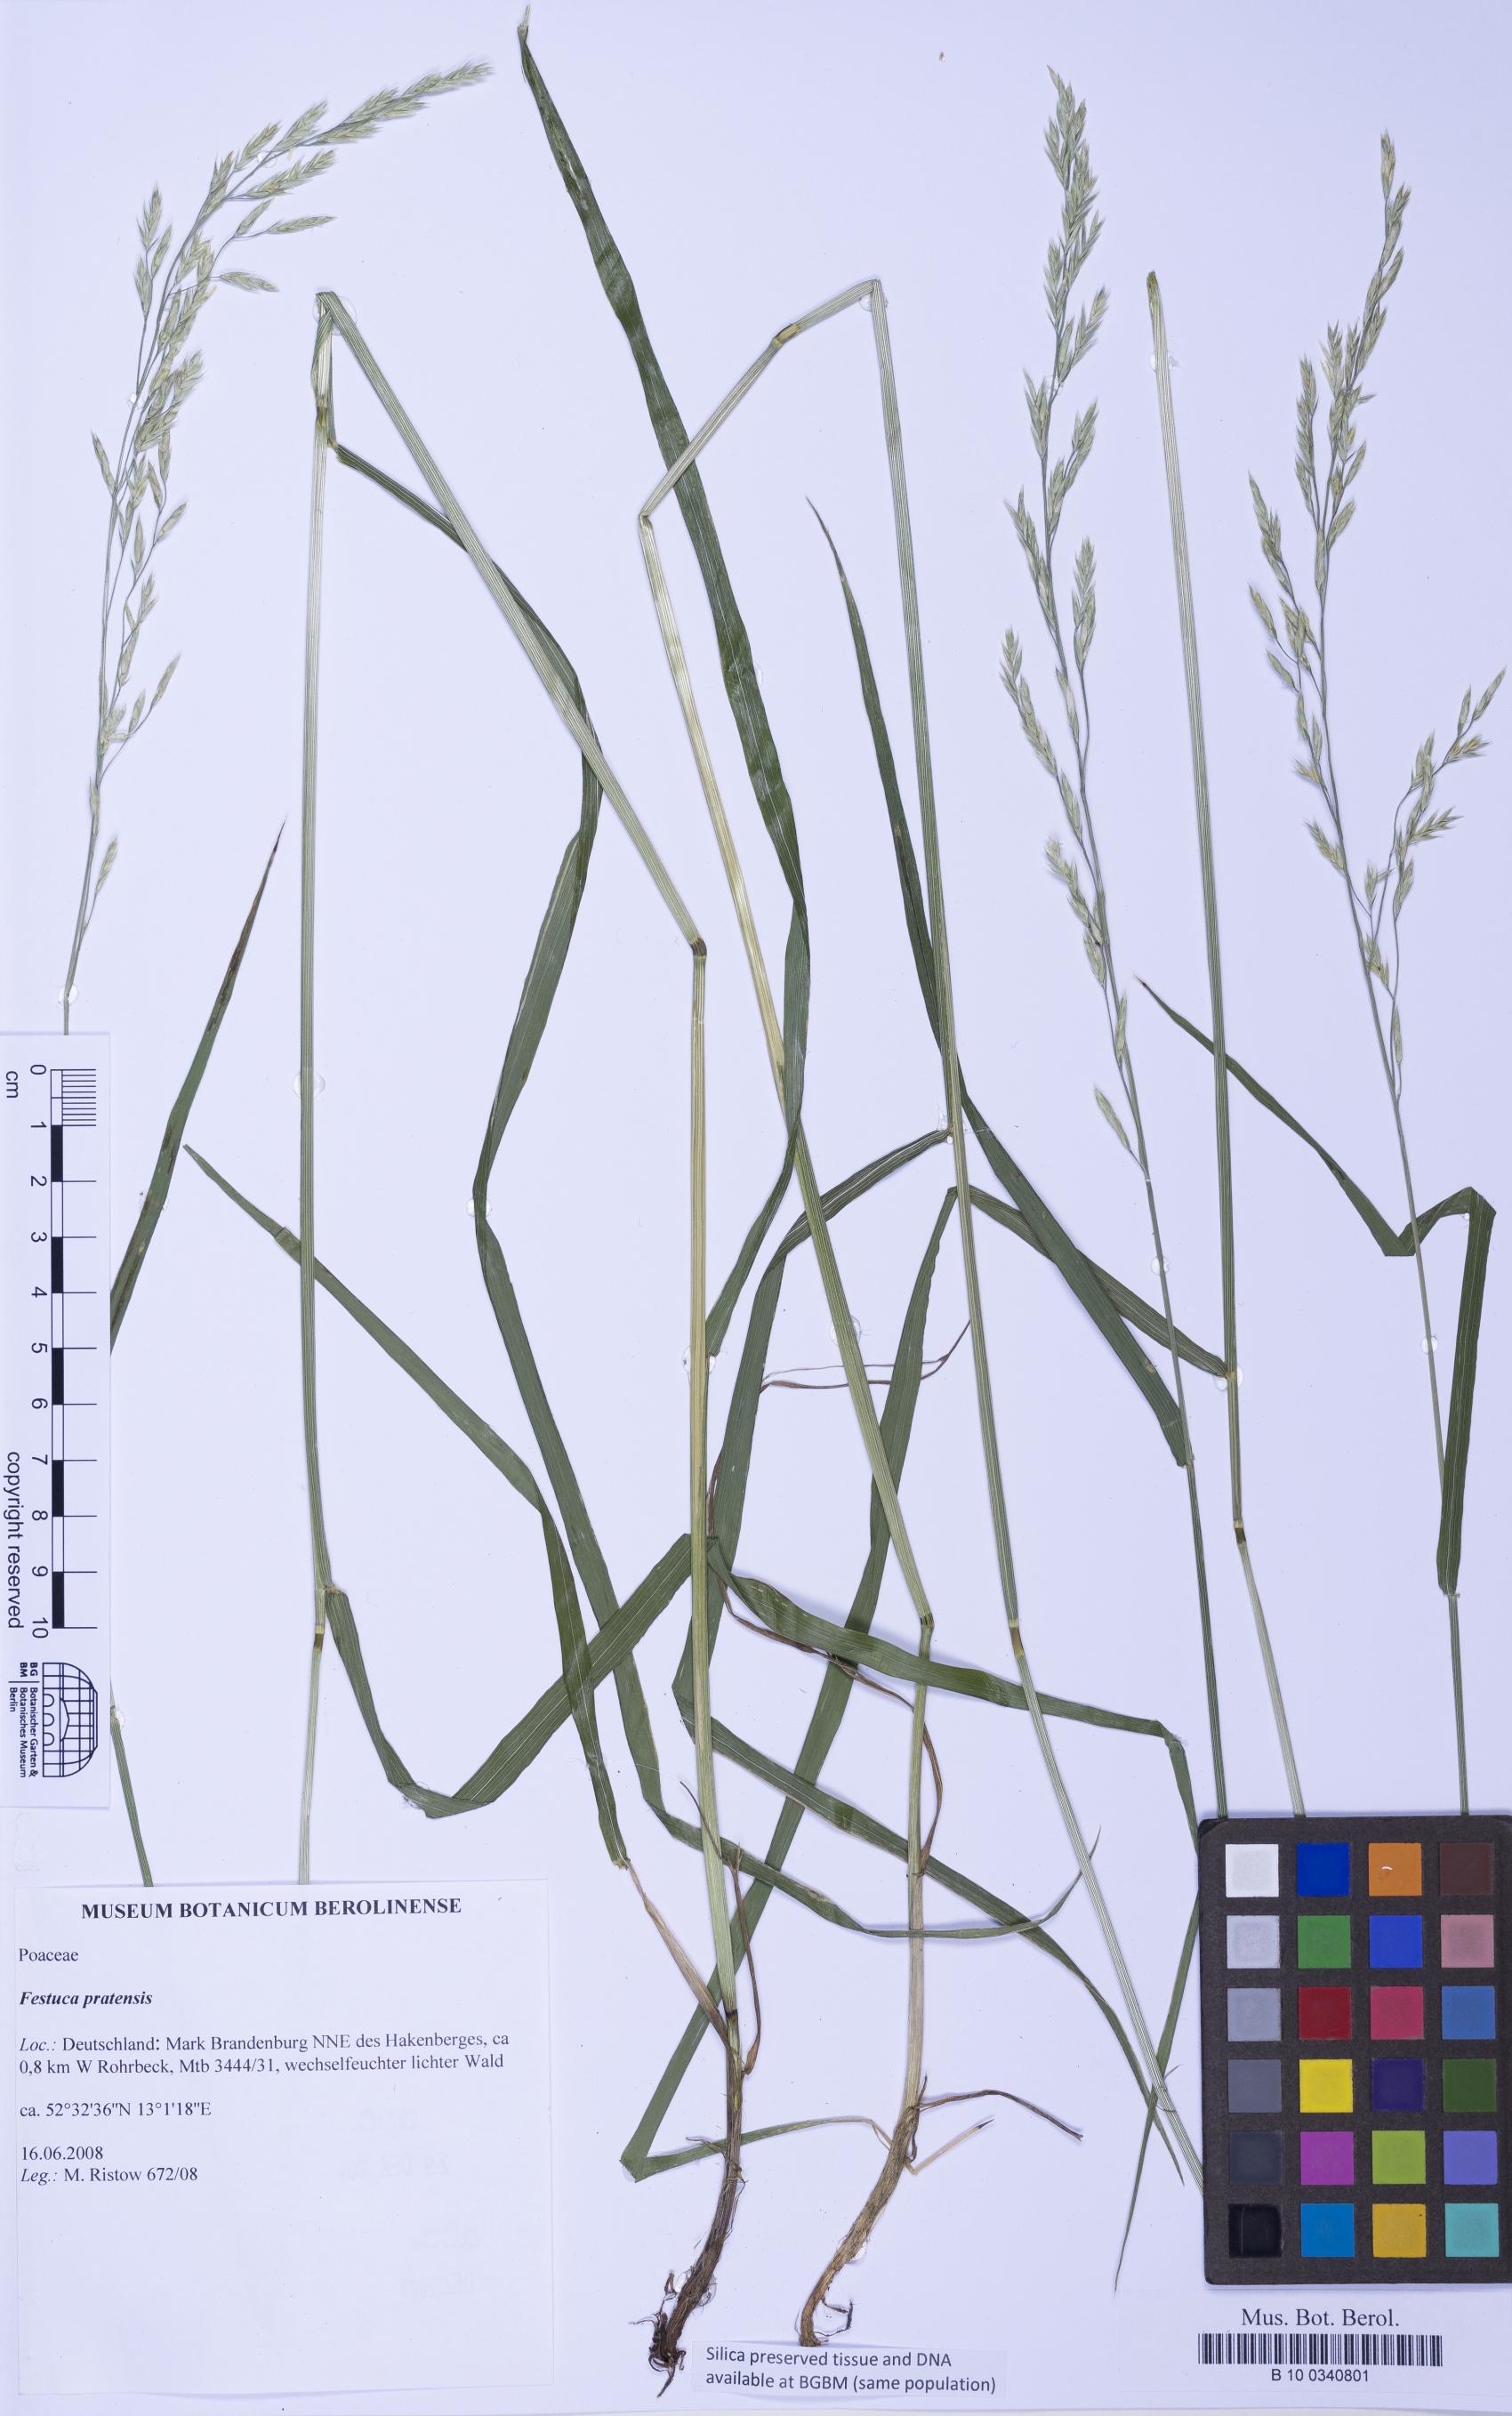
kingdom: Plantae
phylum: Tracheophyta
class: Liliopsida
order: Poales
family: Poaceae
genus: Lolium
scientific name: Lolium pratense
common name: Dover grass
